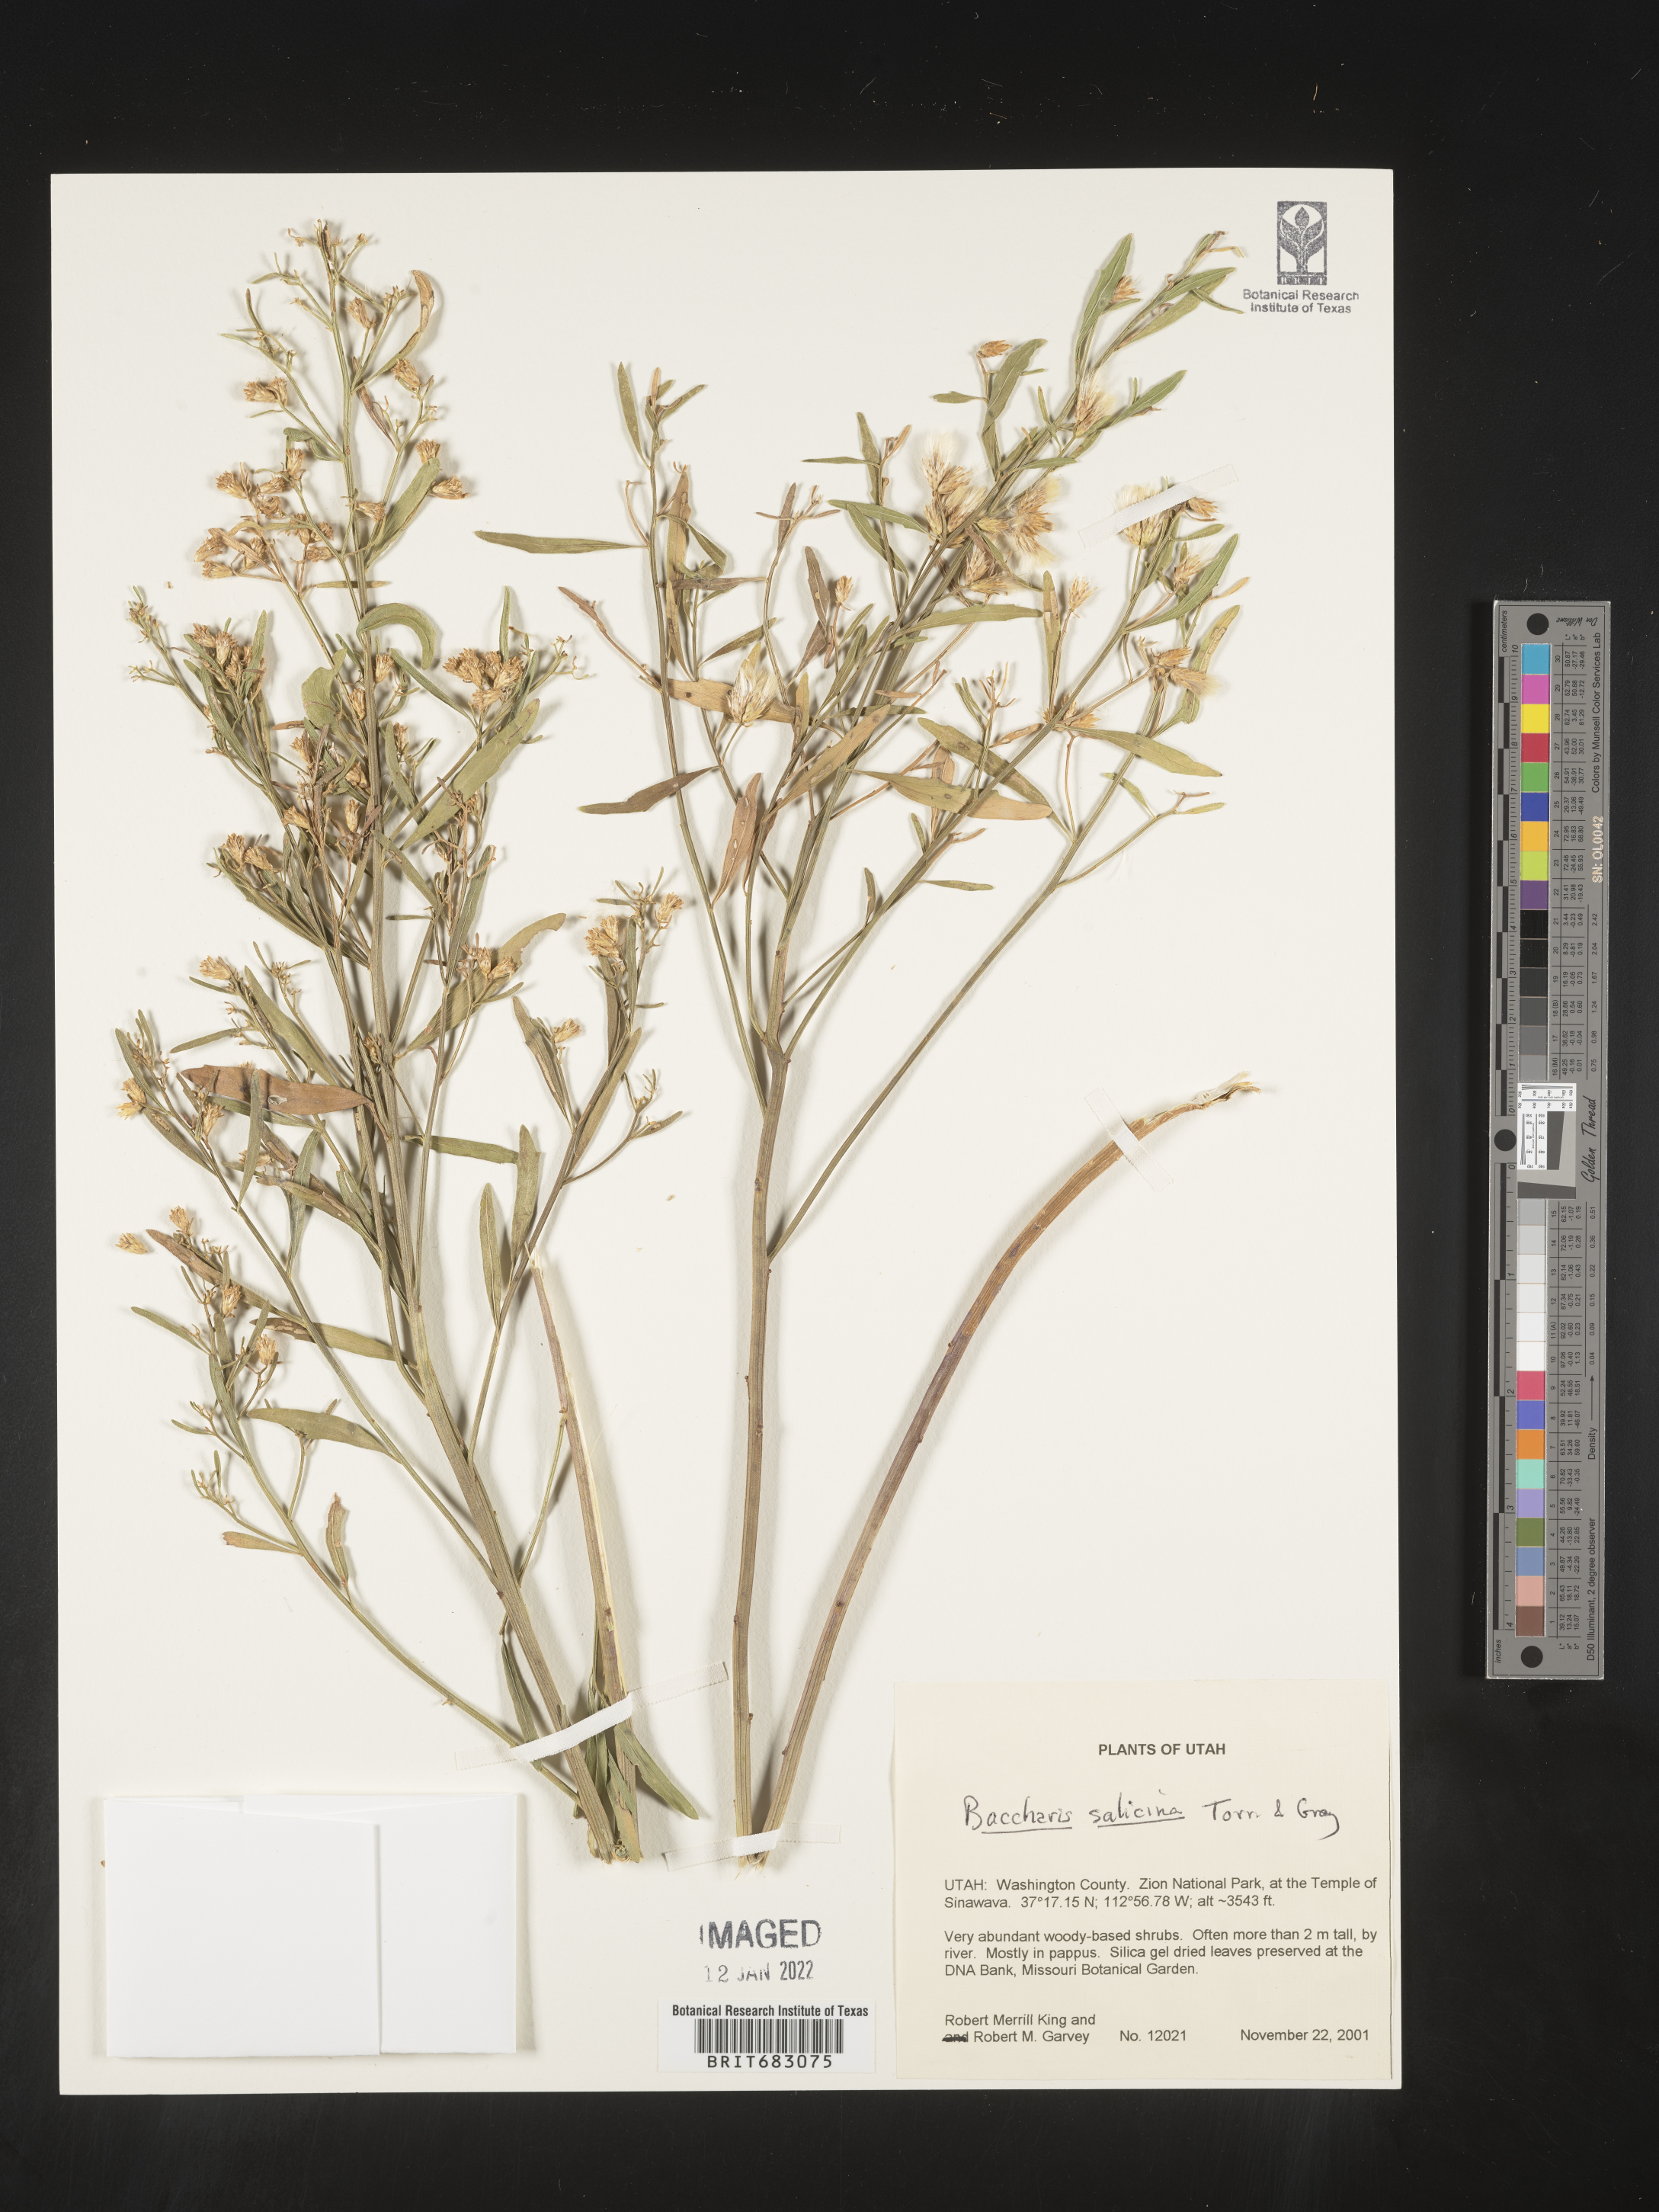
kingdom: Plantae
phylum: Tracheophyta
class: Magnoliopsida
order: Asterales
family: Asteraceae
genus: Baccharis
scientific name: Baccharis salicina
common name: Willow baccharis
